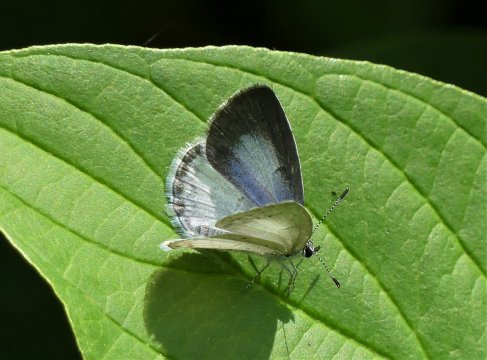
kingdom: Animalia
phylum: Arthropoda
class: Insecta
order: Lepidoptera
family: Lycaenidae
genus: Cyaniris
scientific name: Cyaniris neglecta
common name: Summer Azure
